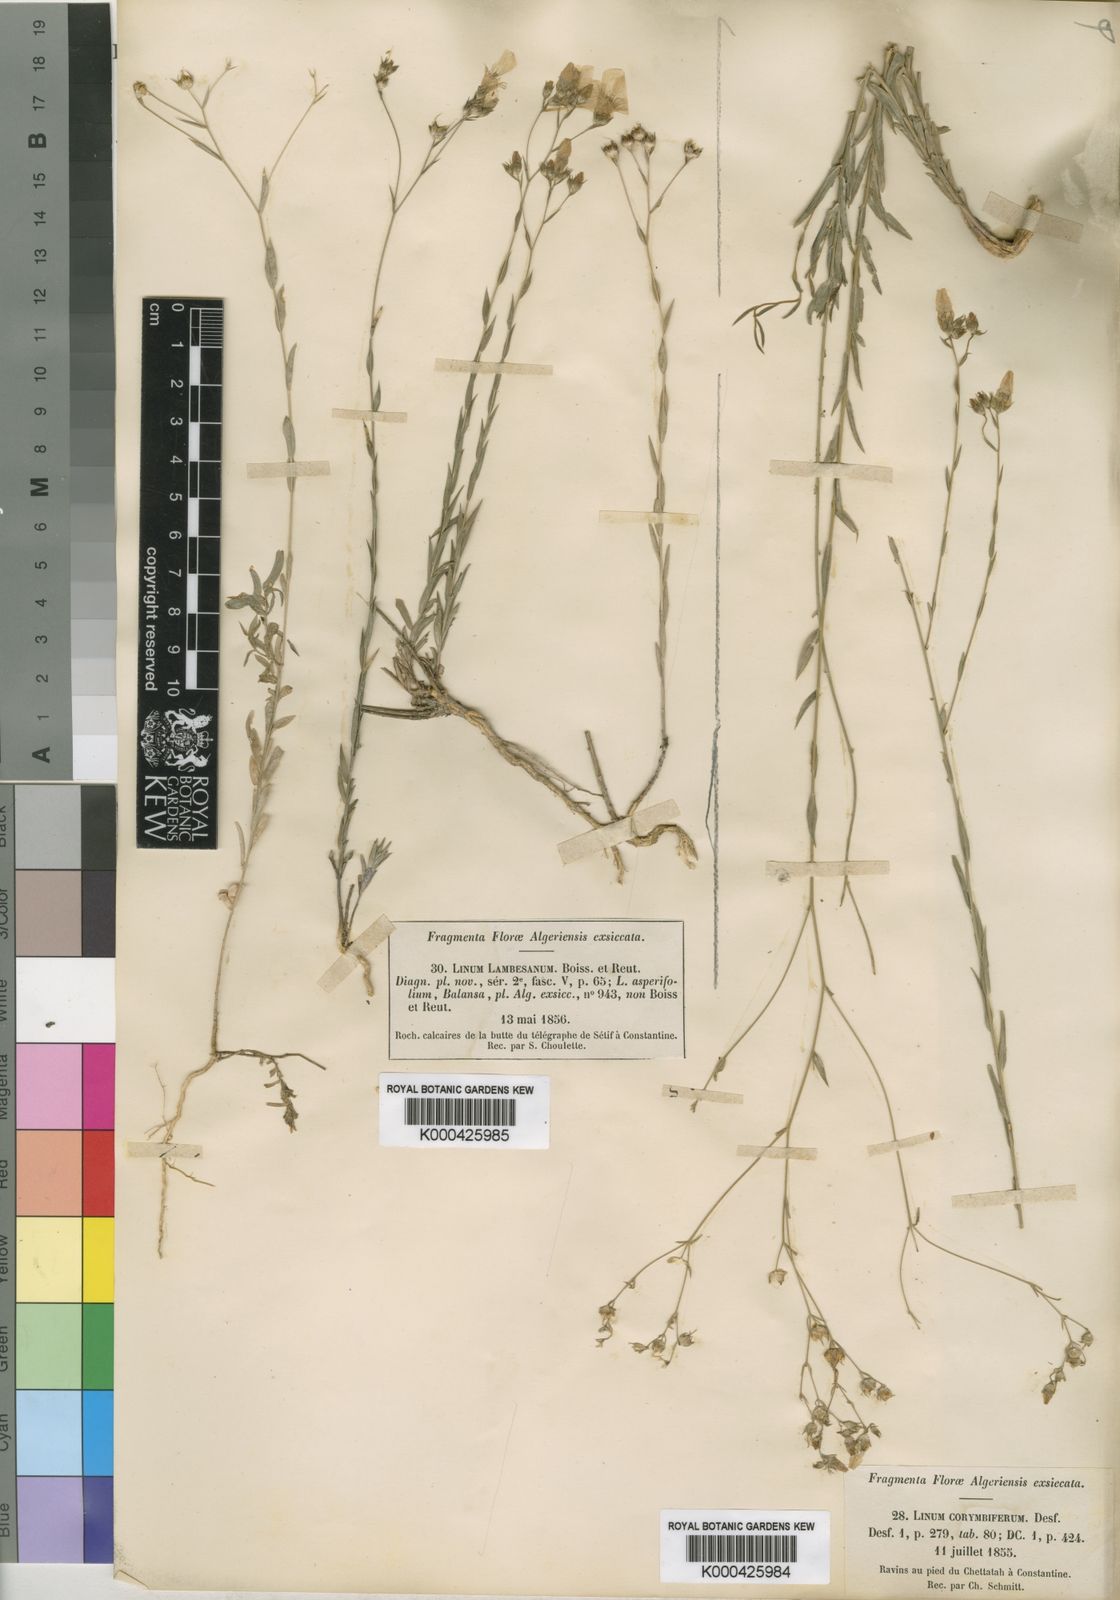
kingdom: Plantae
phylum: Tracheophyta
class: Magnoliopsida
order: Malpighiales
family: Linaceae
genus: Linum
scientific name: Linum corymbiferum
